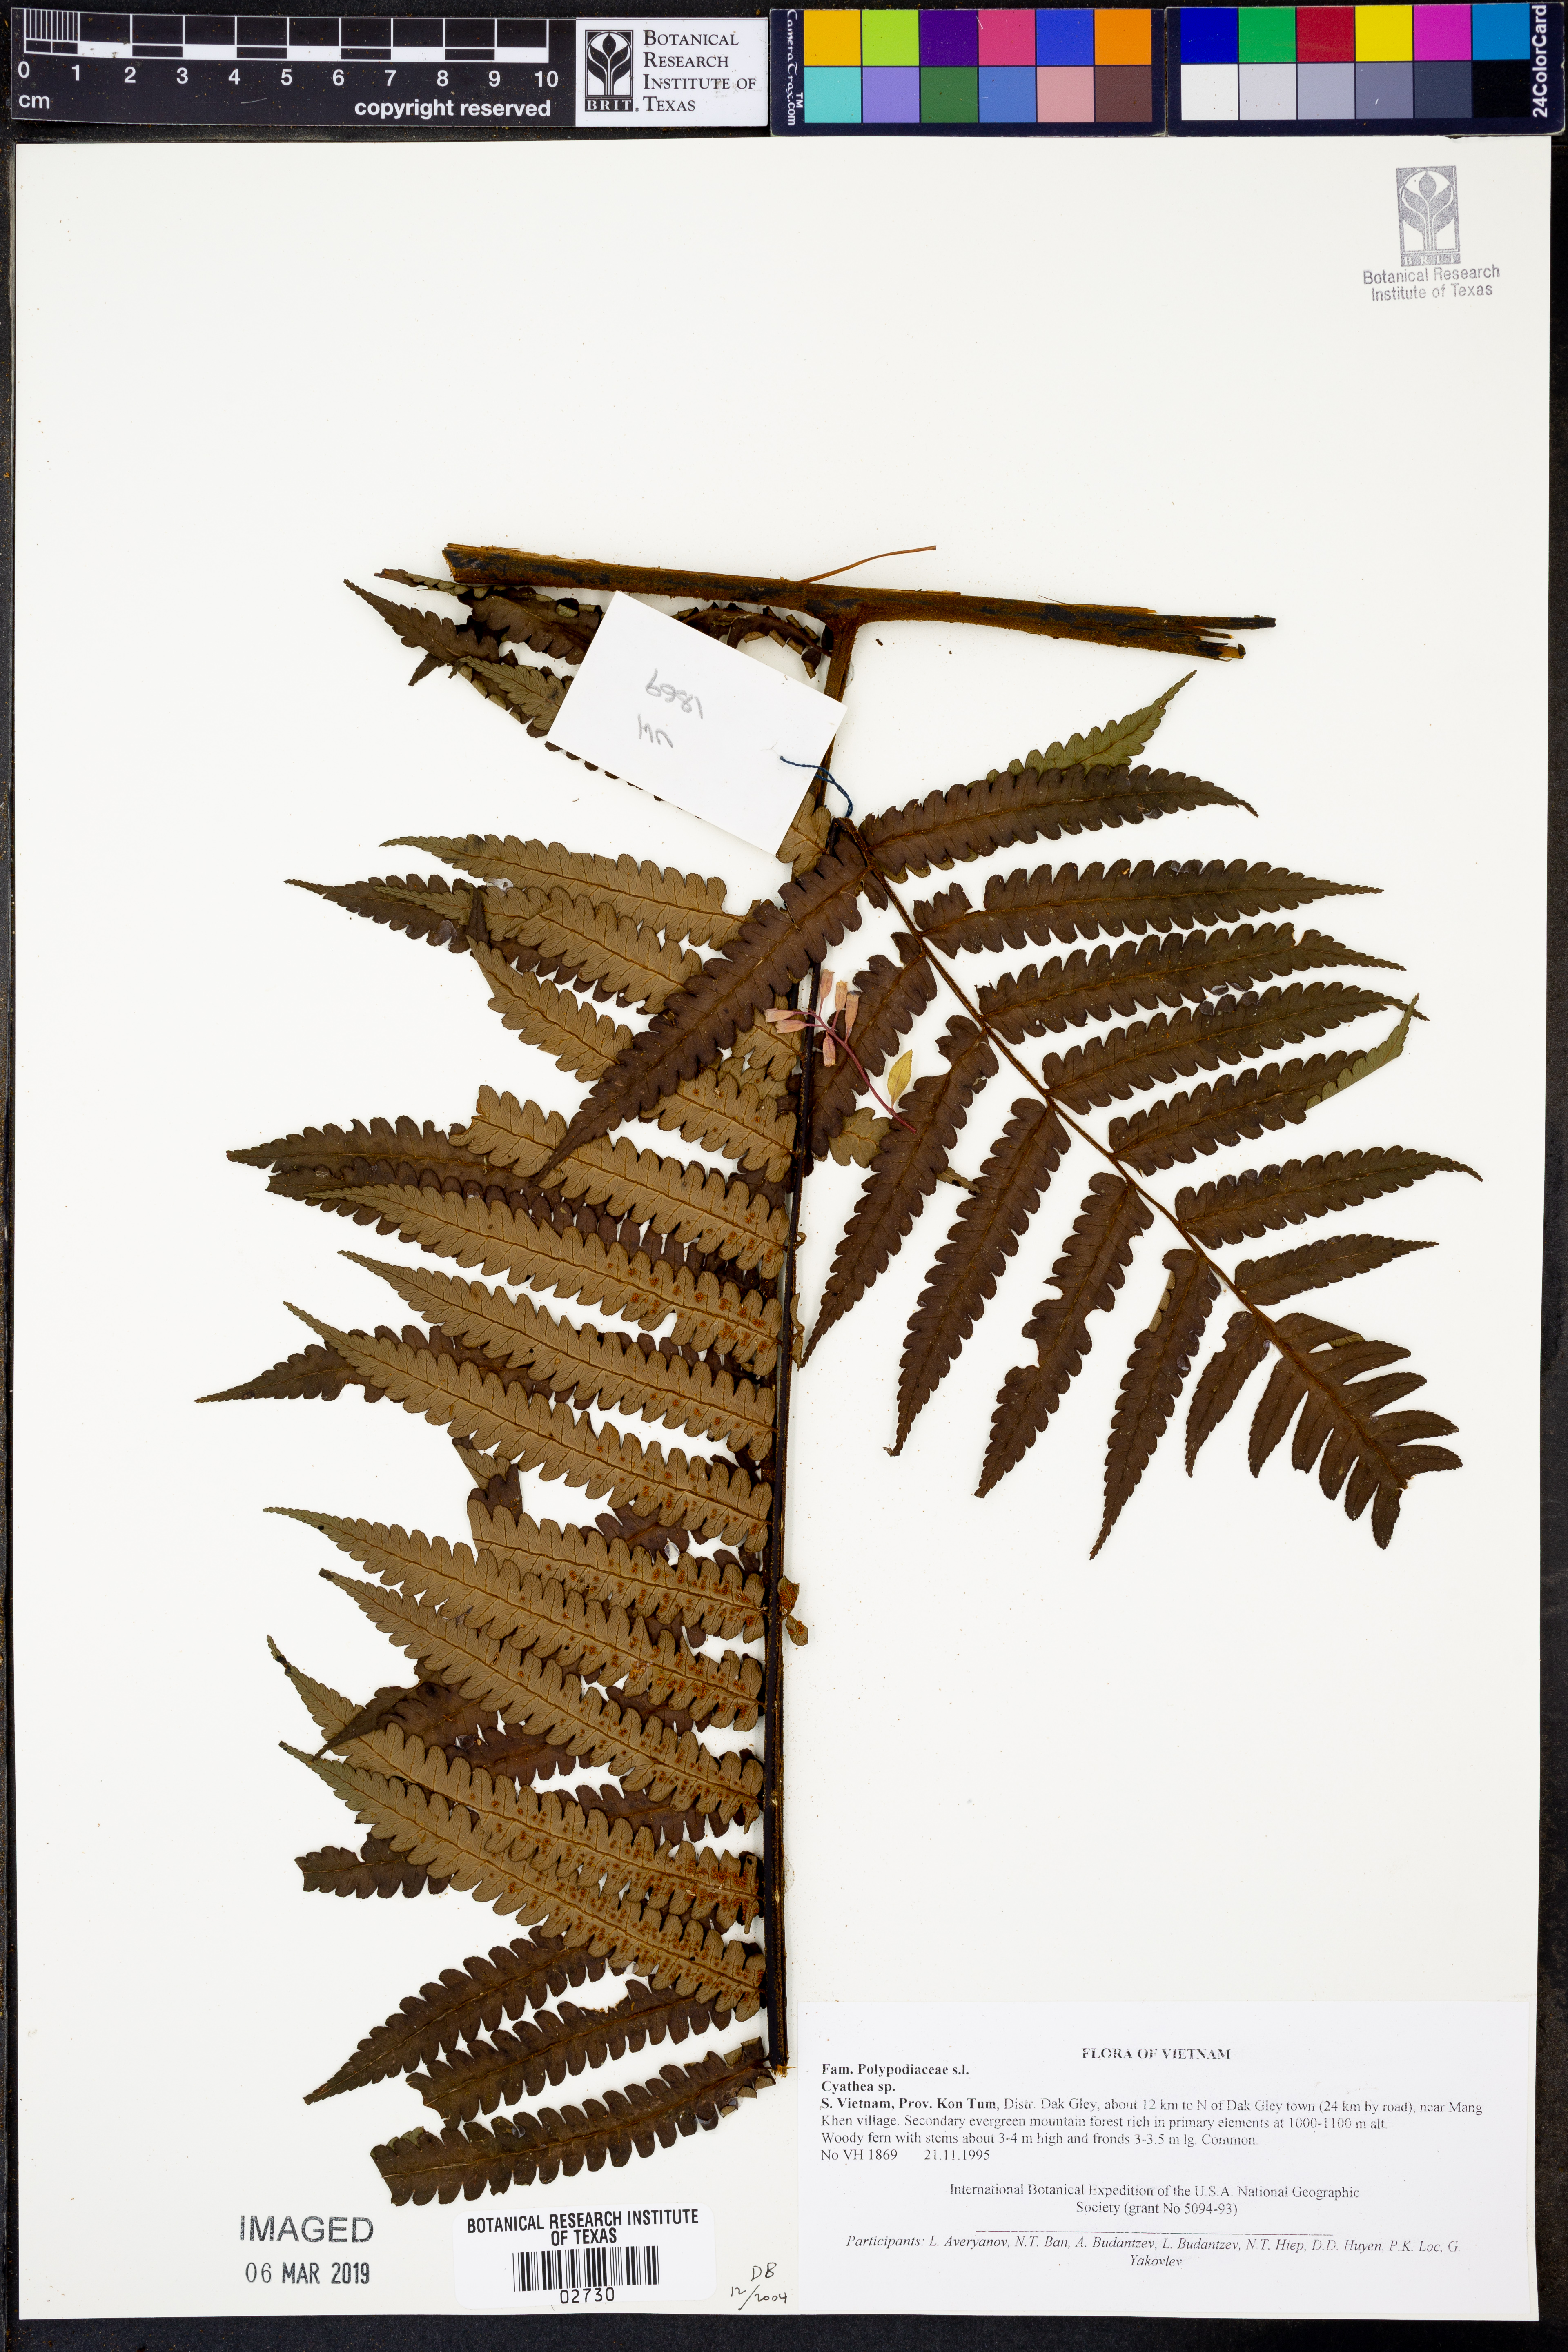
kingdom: Plantae
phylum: Tracheophyta
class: Polypodiopsida
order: Cyatheales
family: Cyatheaceae
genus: Cyathea
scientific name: Cyathea
